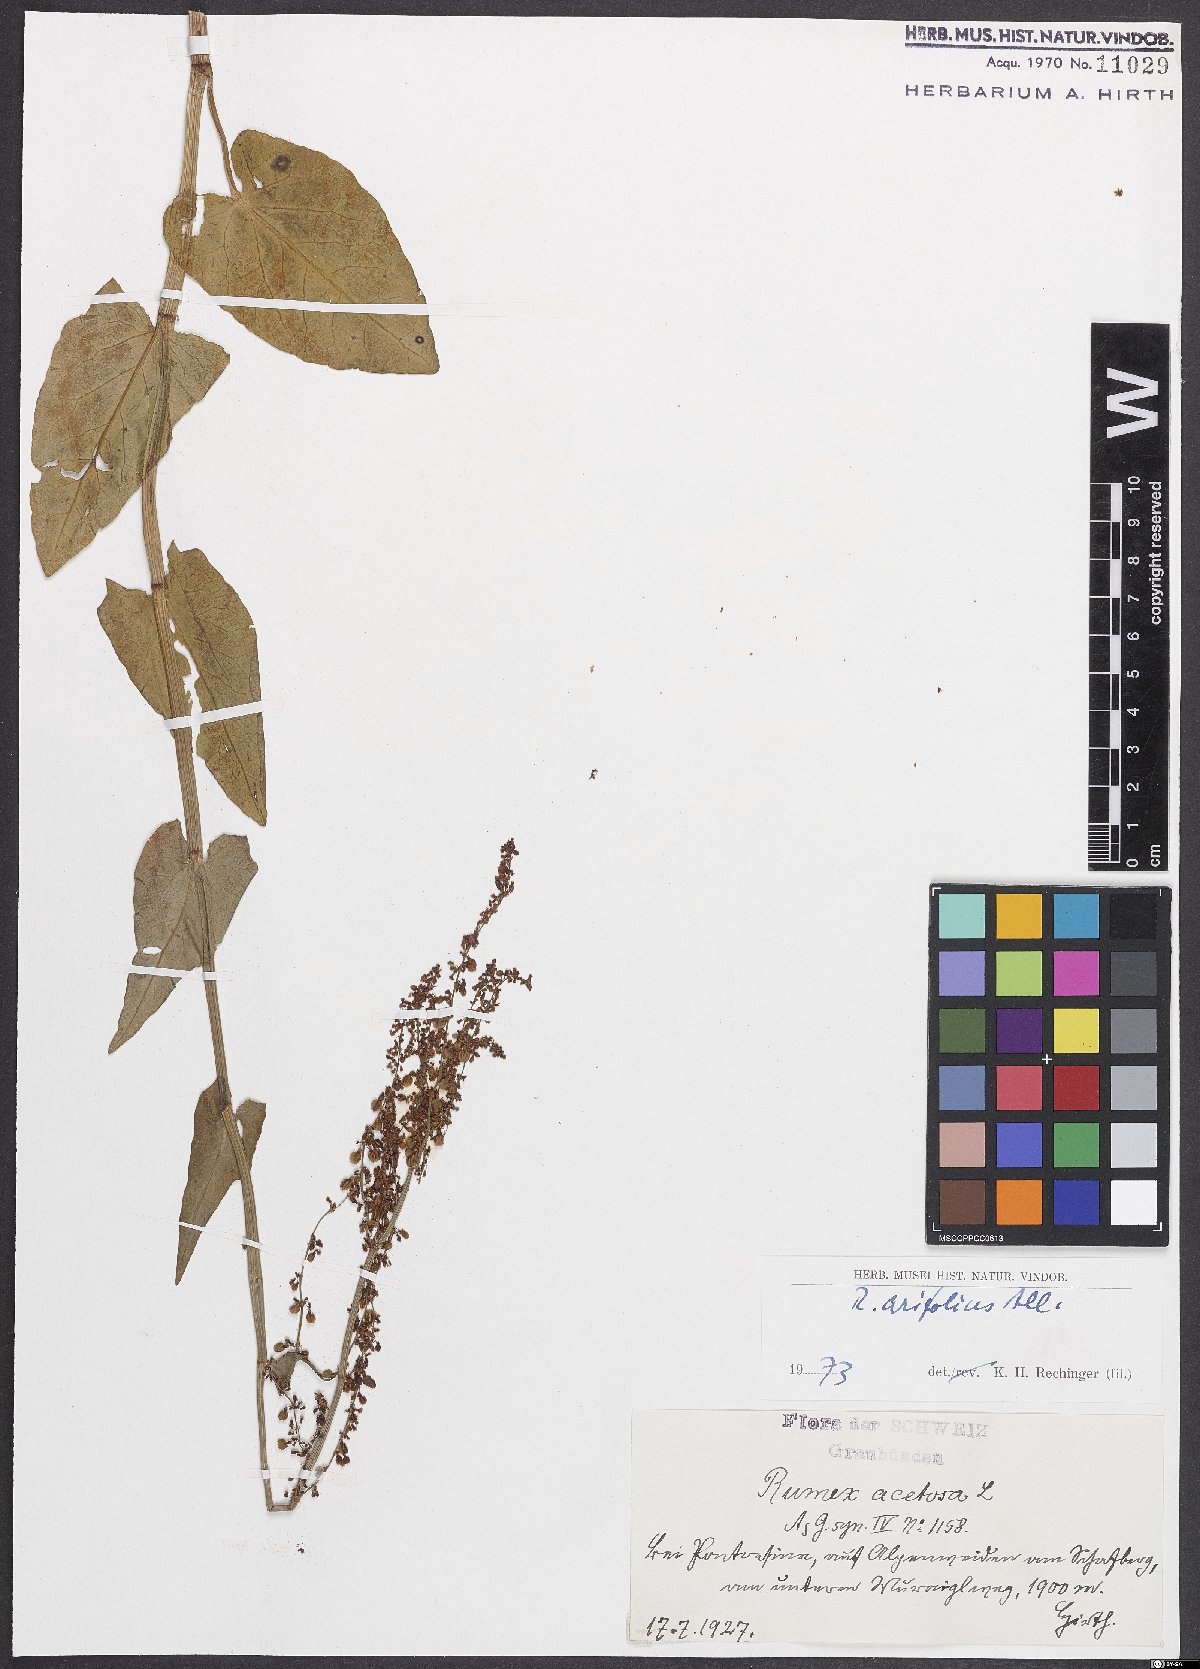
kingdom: Plantae
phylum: Tracheophyta
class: Magnoliopsida
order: Caryophyllales
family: Polygonaceae
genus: Rumex
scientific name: Rumex arifolius
